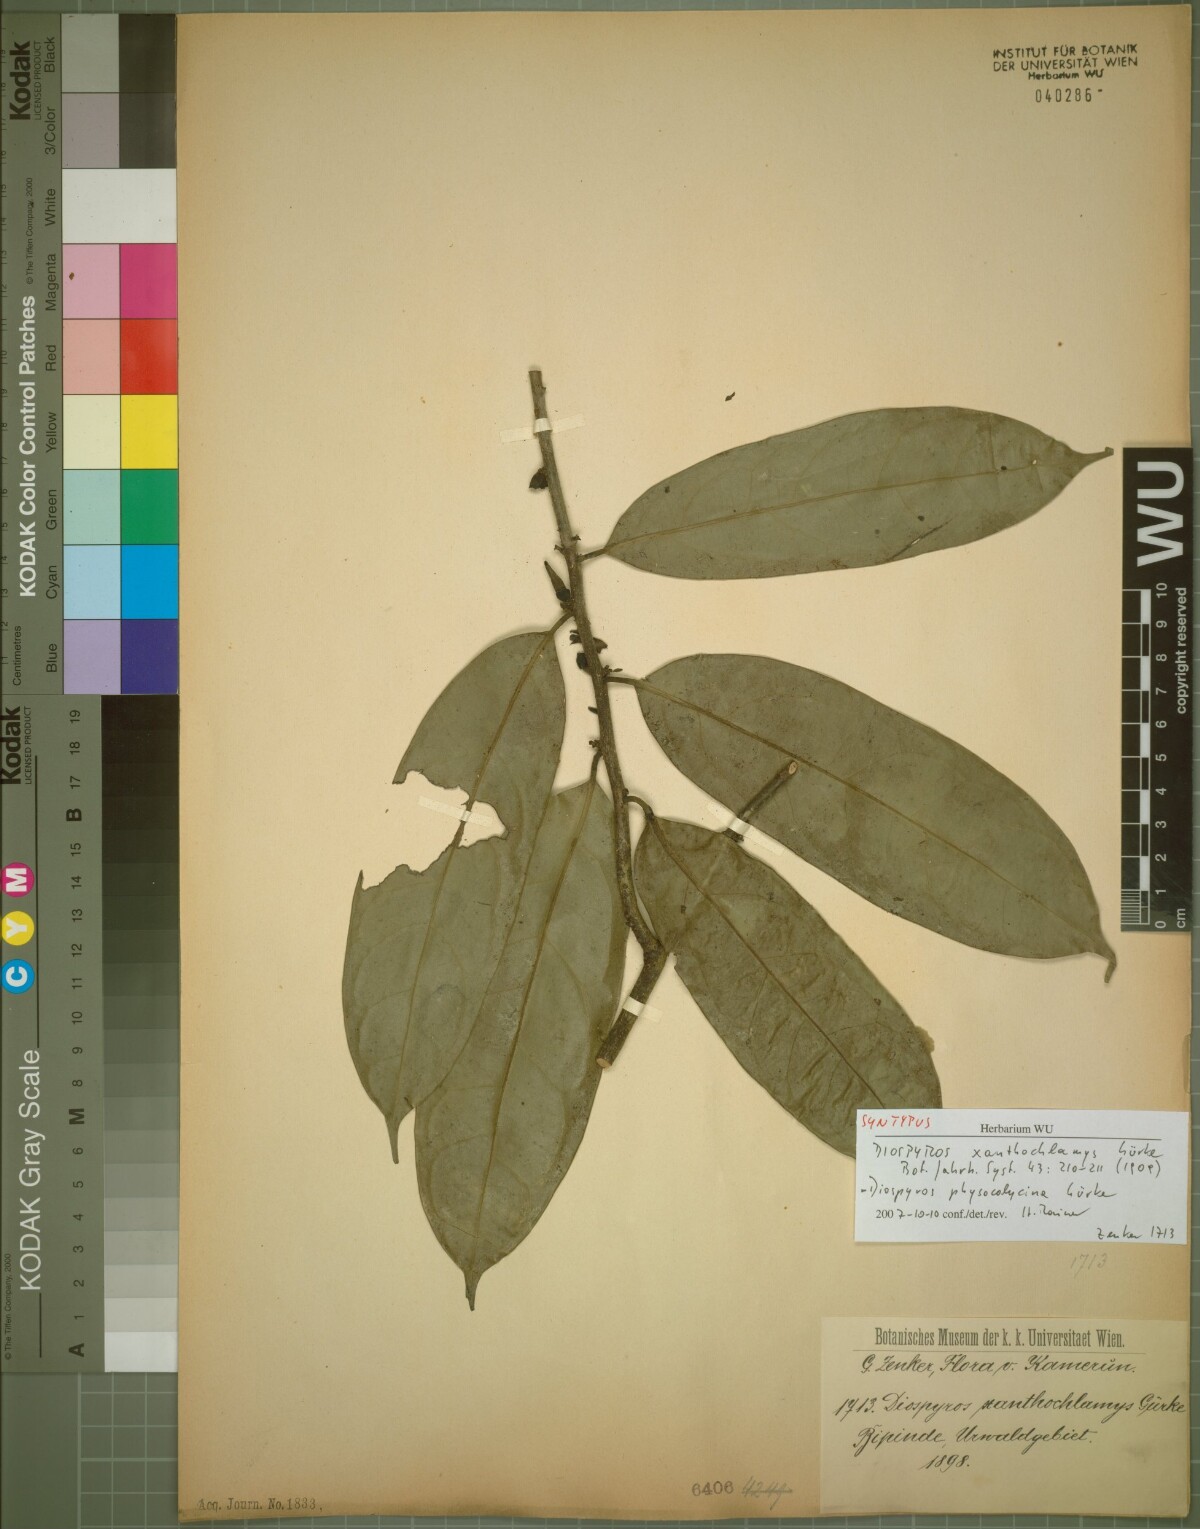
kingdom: Plantae
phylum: Tracheophyta
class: Magnoliopsida
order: Ericales
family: Ebenaceae
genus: Diospyros
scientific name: Diospyros physocalycina
